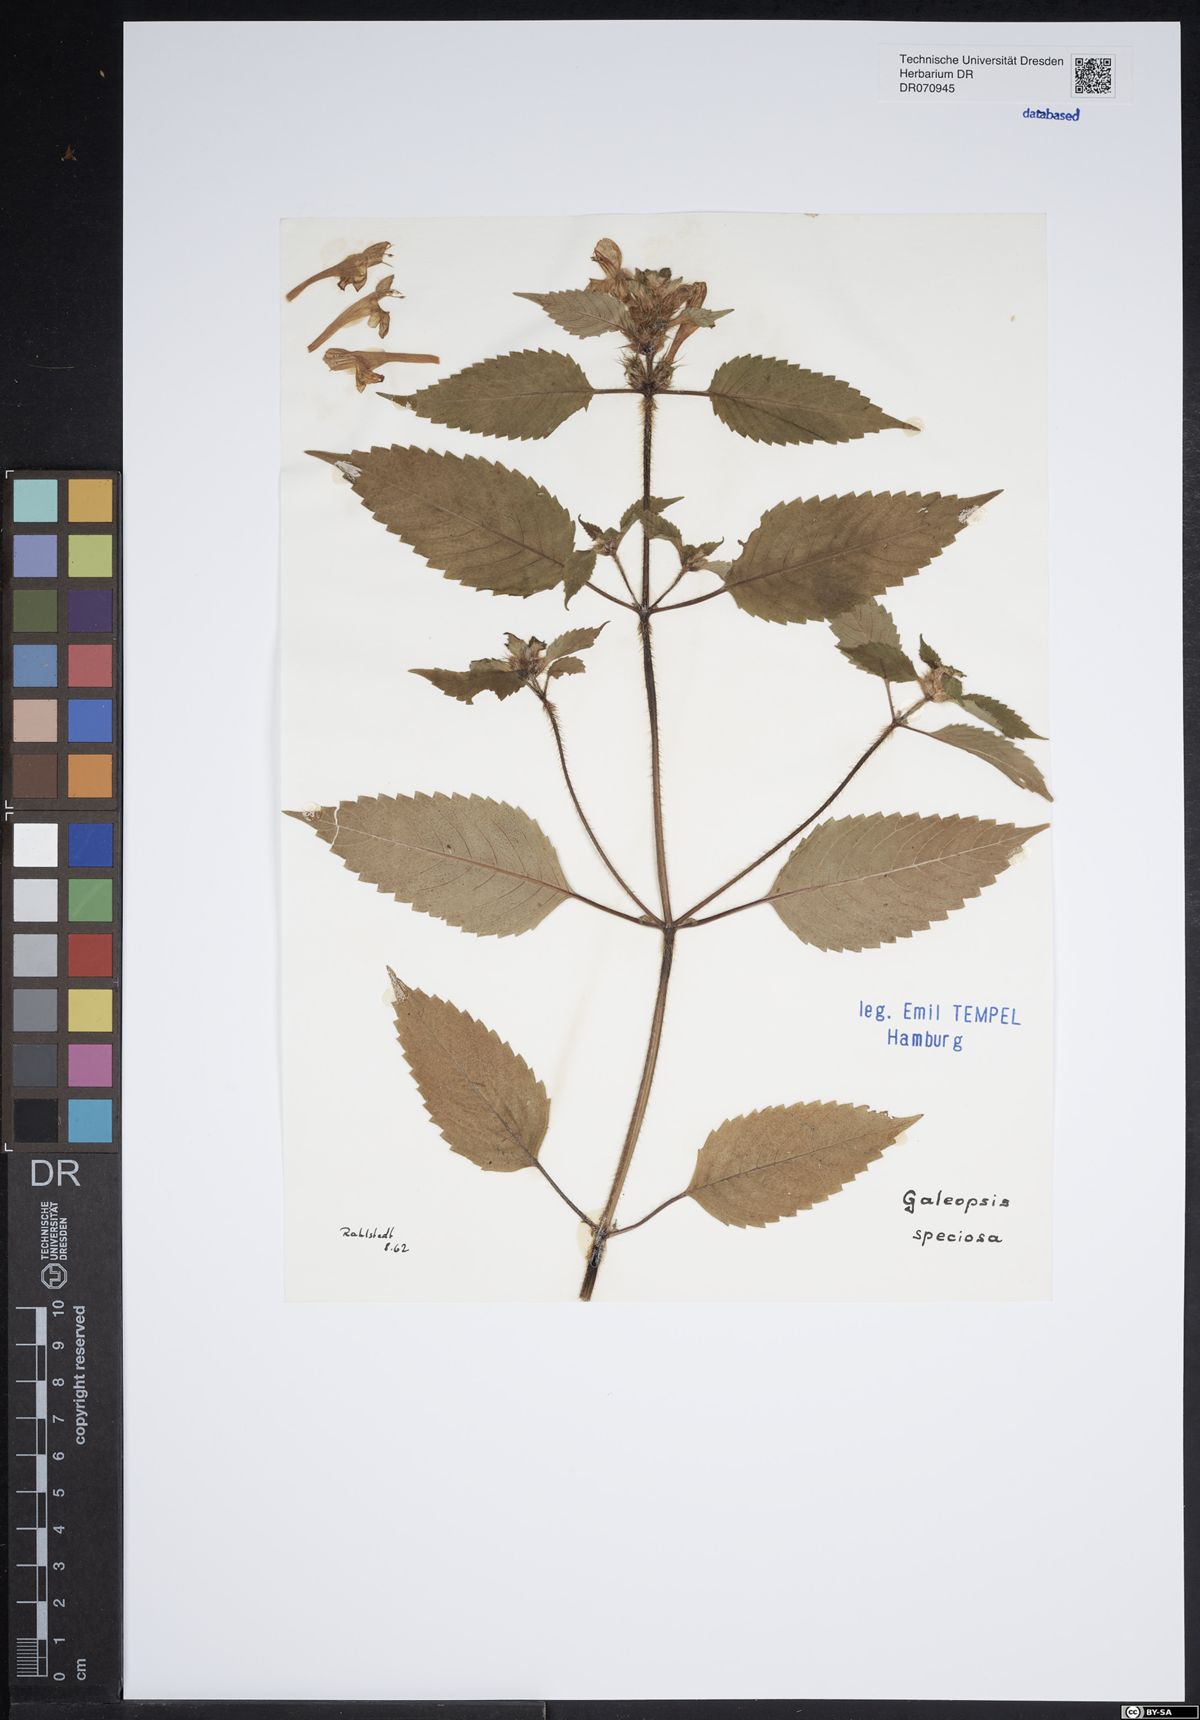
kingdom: Plantae
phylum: Tracheophyta
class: Magnoliopsida
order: Lamiales
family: Lamiaceae
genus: Galeopsis
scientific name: Galeopsis speciosa
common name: Large-flowered hemp-nettle
